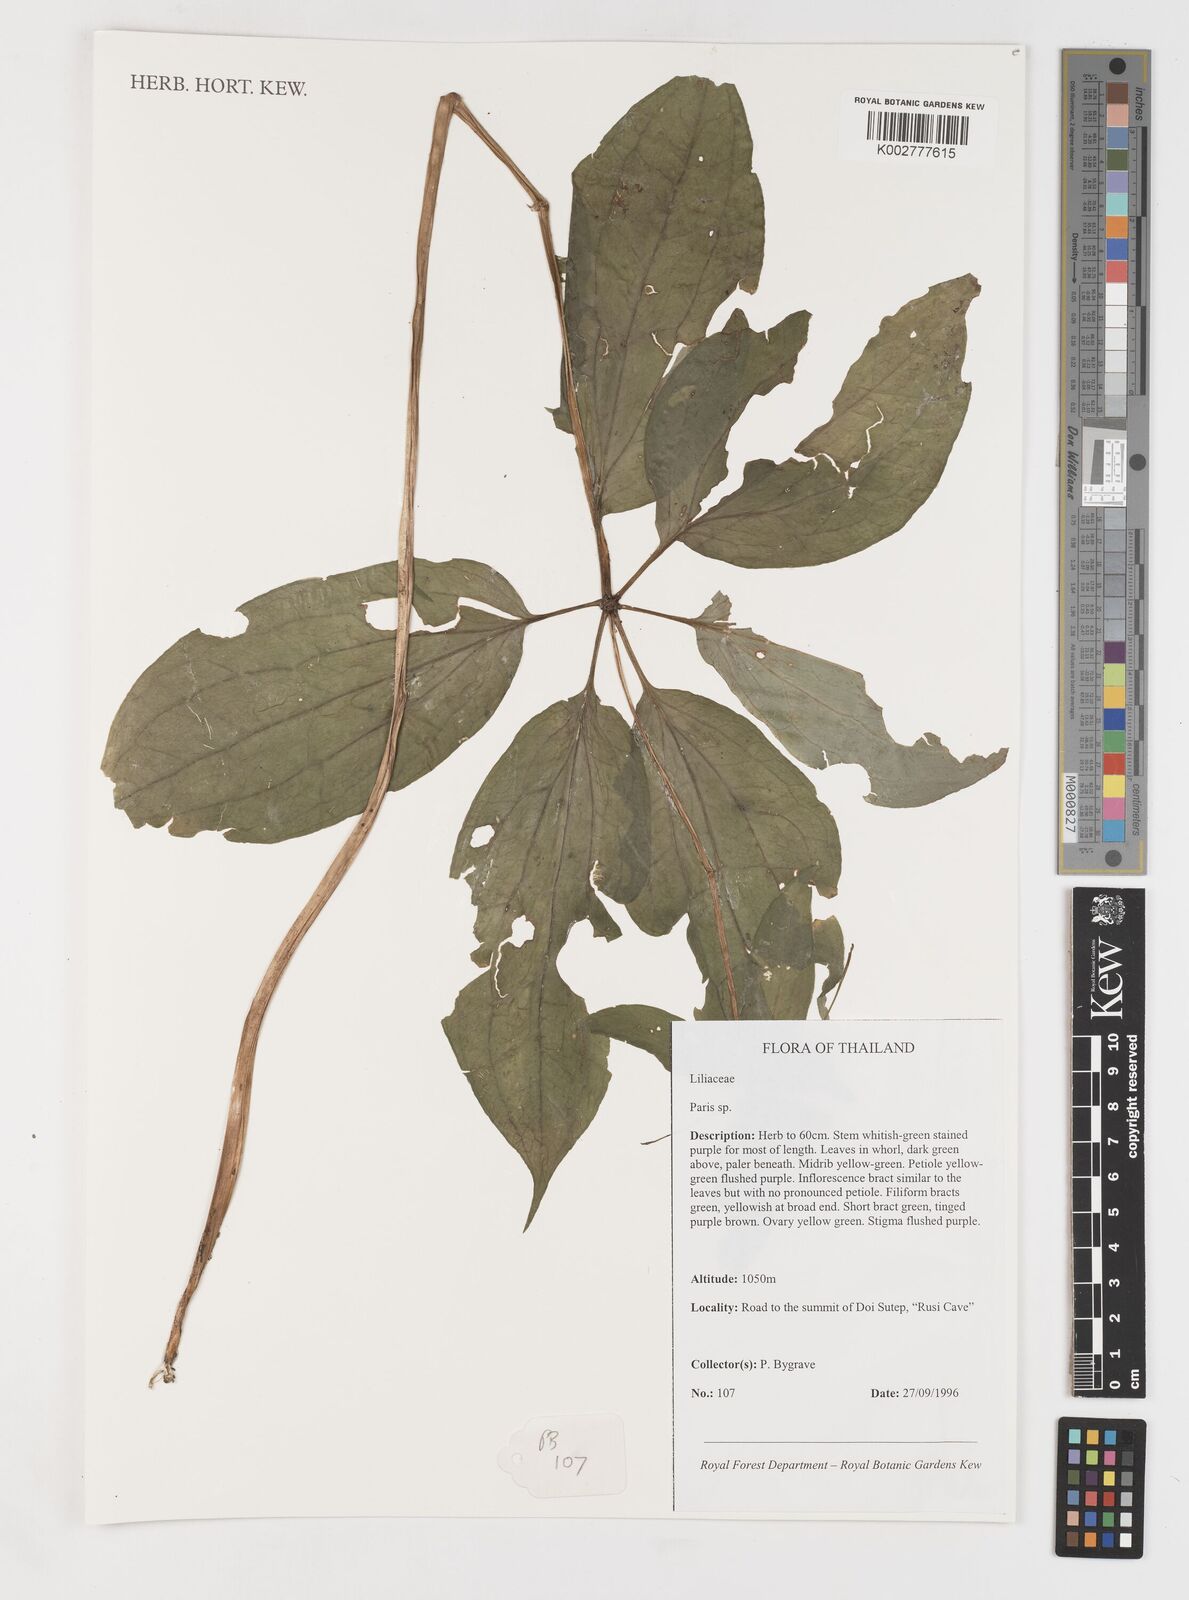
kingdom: Plantae
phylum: Tracheophyta
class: Liliopsida
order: Liliales
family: Melanthiaceae
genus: Paris
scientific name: Paris
